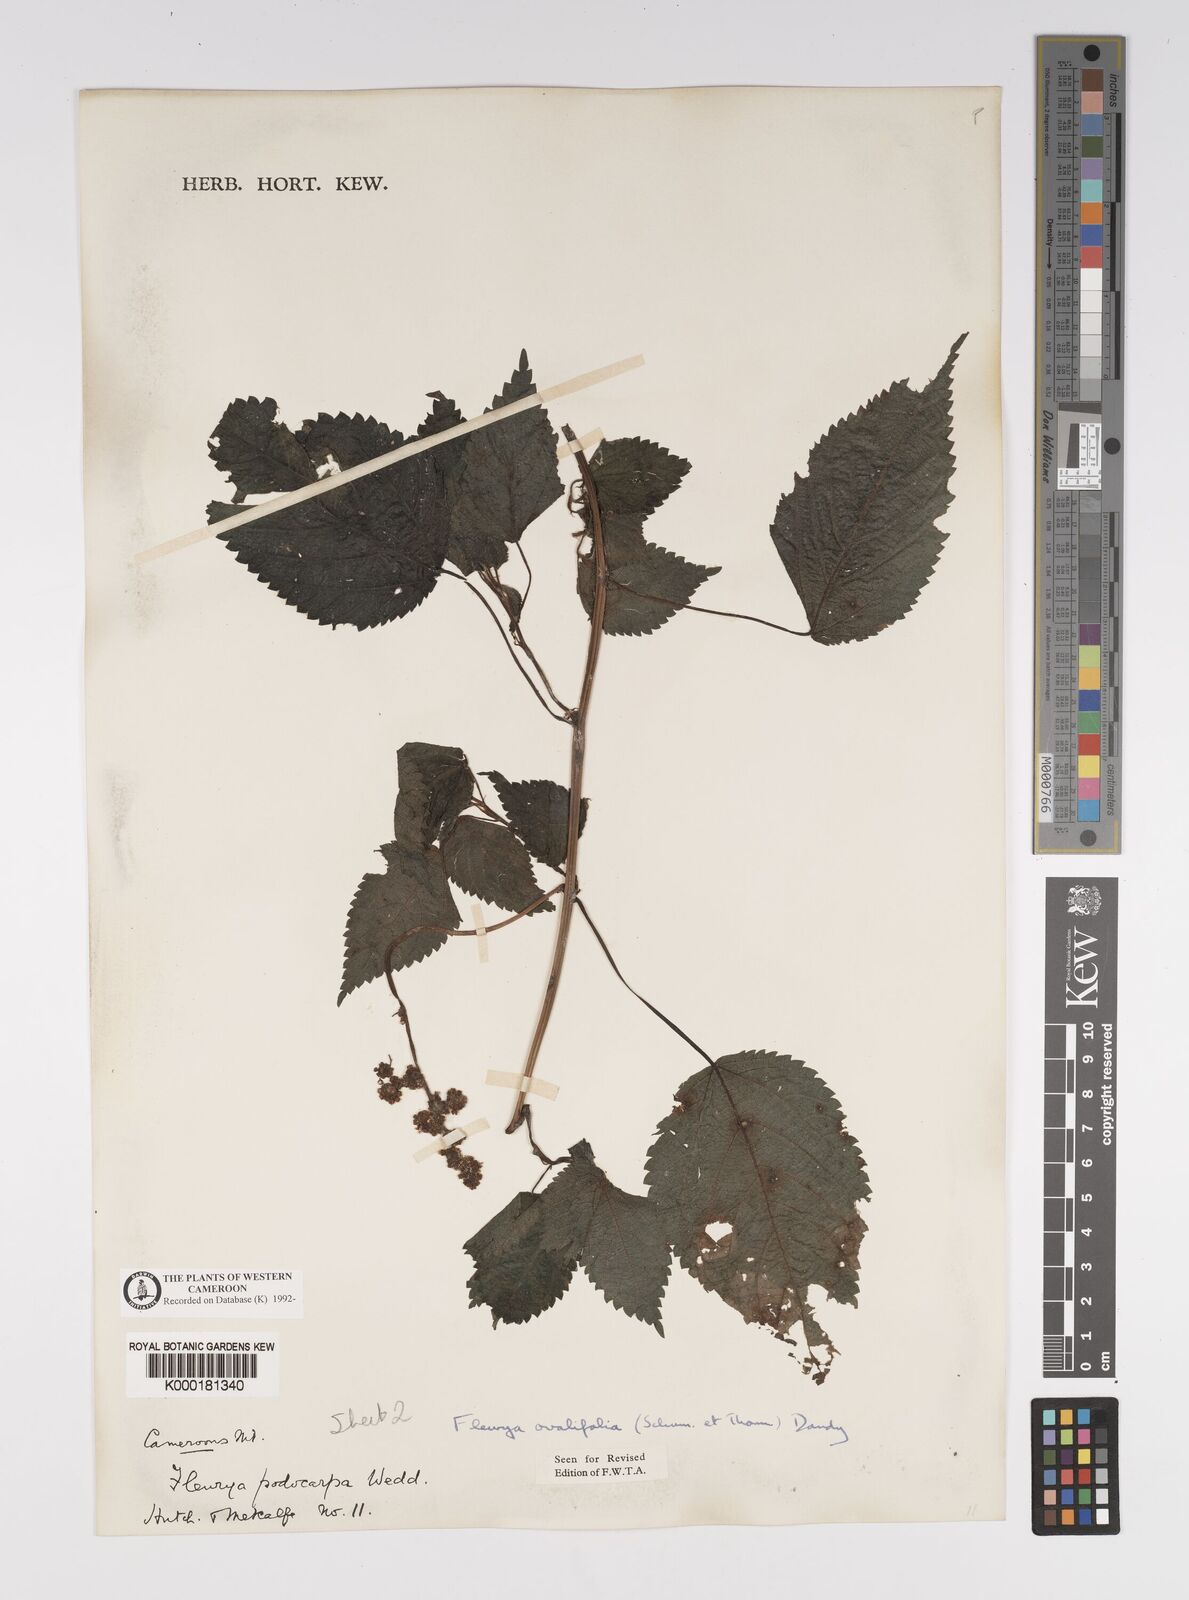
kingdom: Plantae
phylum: Tracheophyta
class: Magnoliopsida
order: Rosales
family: Urticaceae
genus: Laportea
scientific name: Laportea ovalifolia
